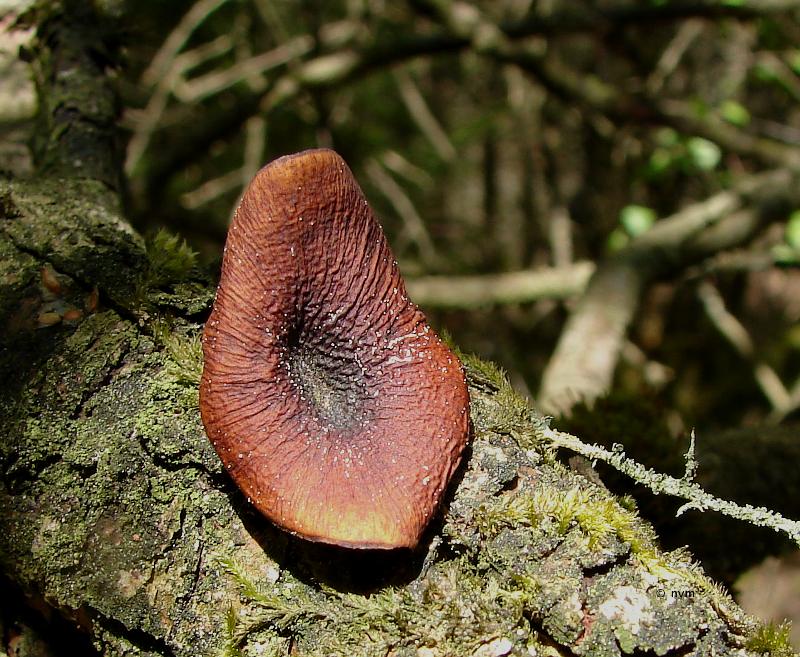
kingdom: Fungi
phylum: Basidiomycota
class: Agaricomycetes
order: Polyporales
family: Polyporaceae
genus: Picipes
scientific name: Picipes tubaeformis
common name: trompet-stilkporesvamp
